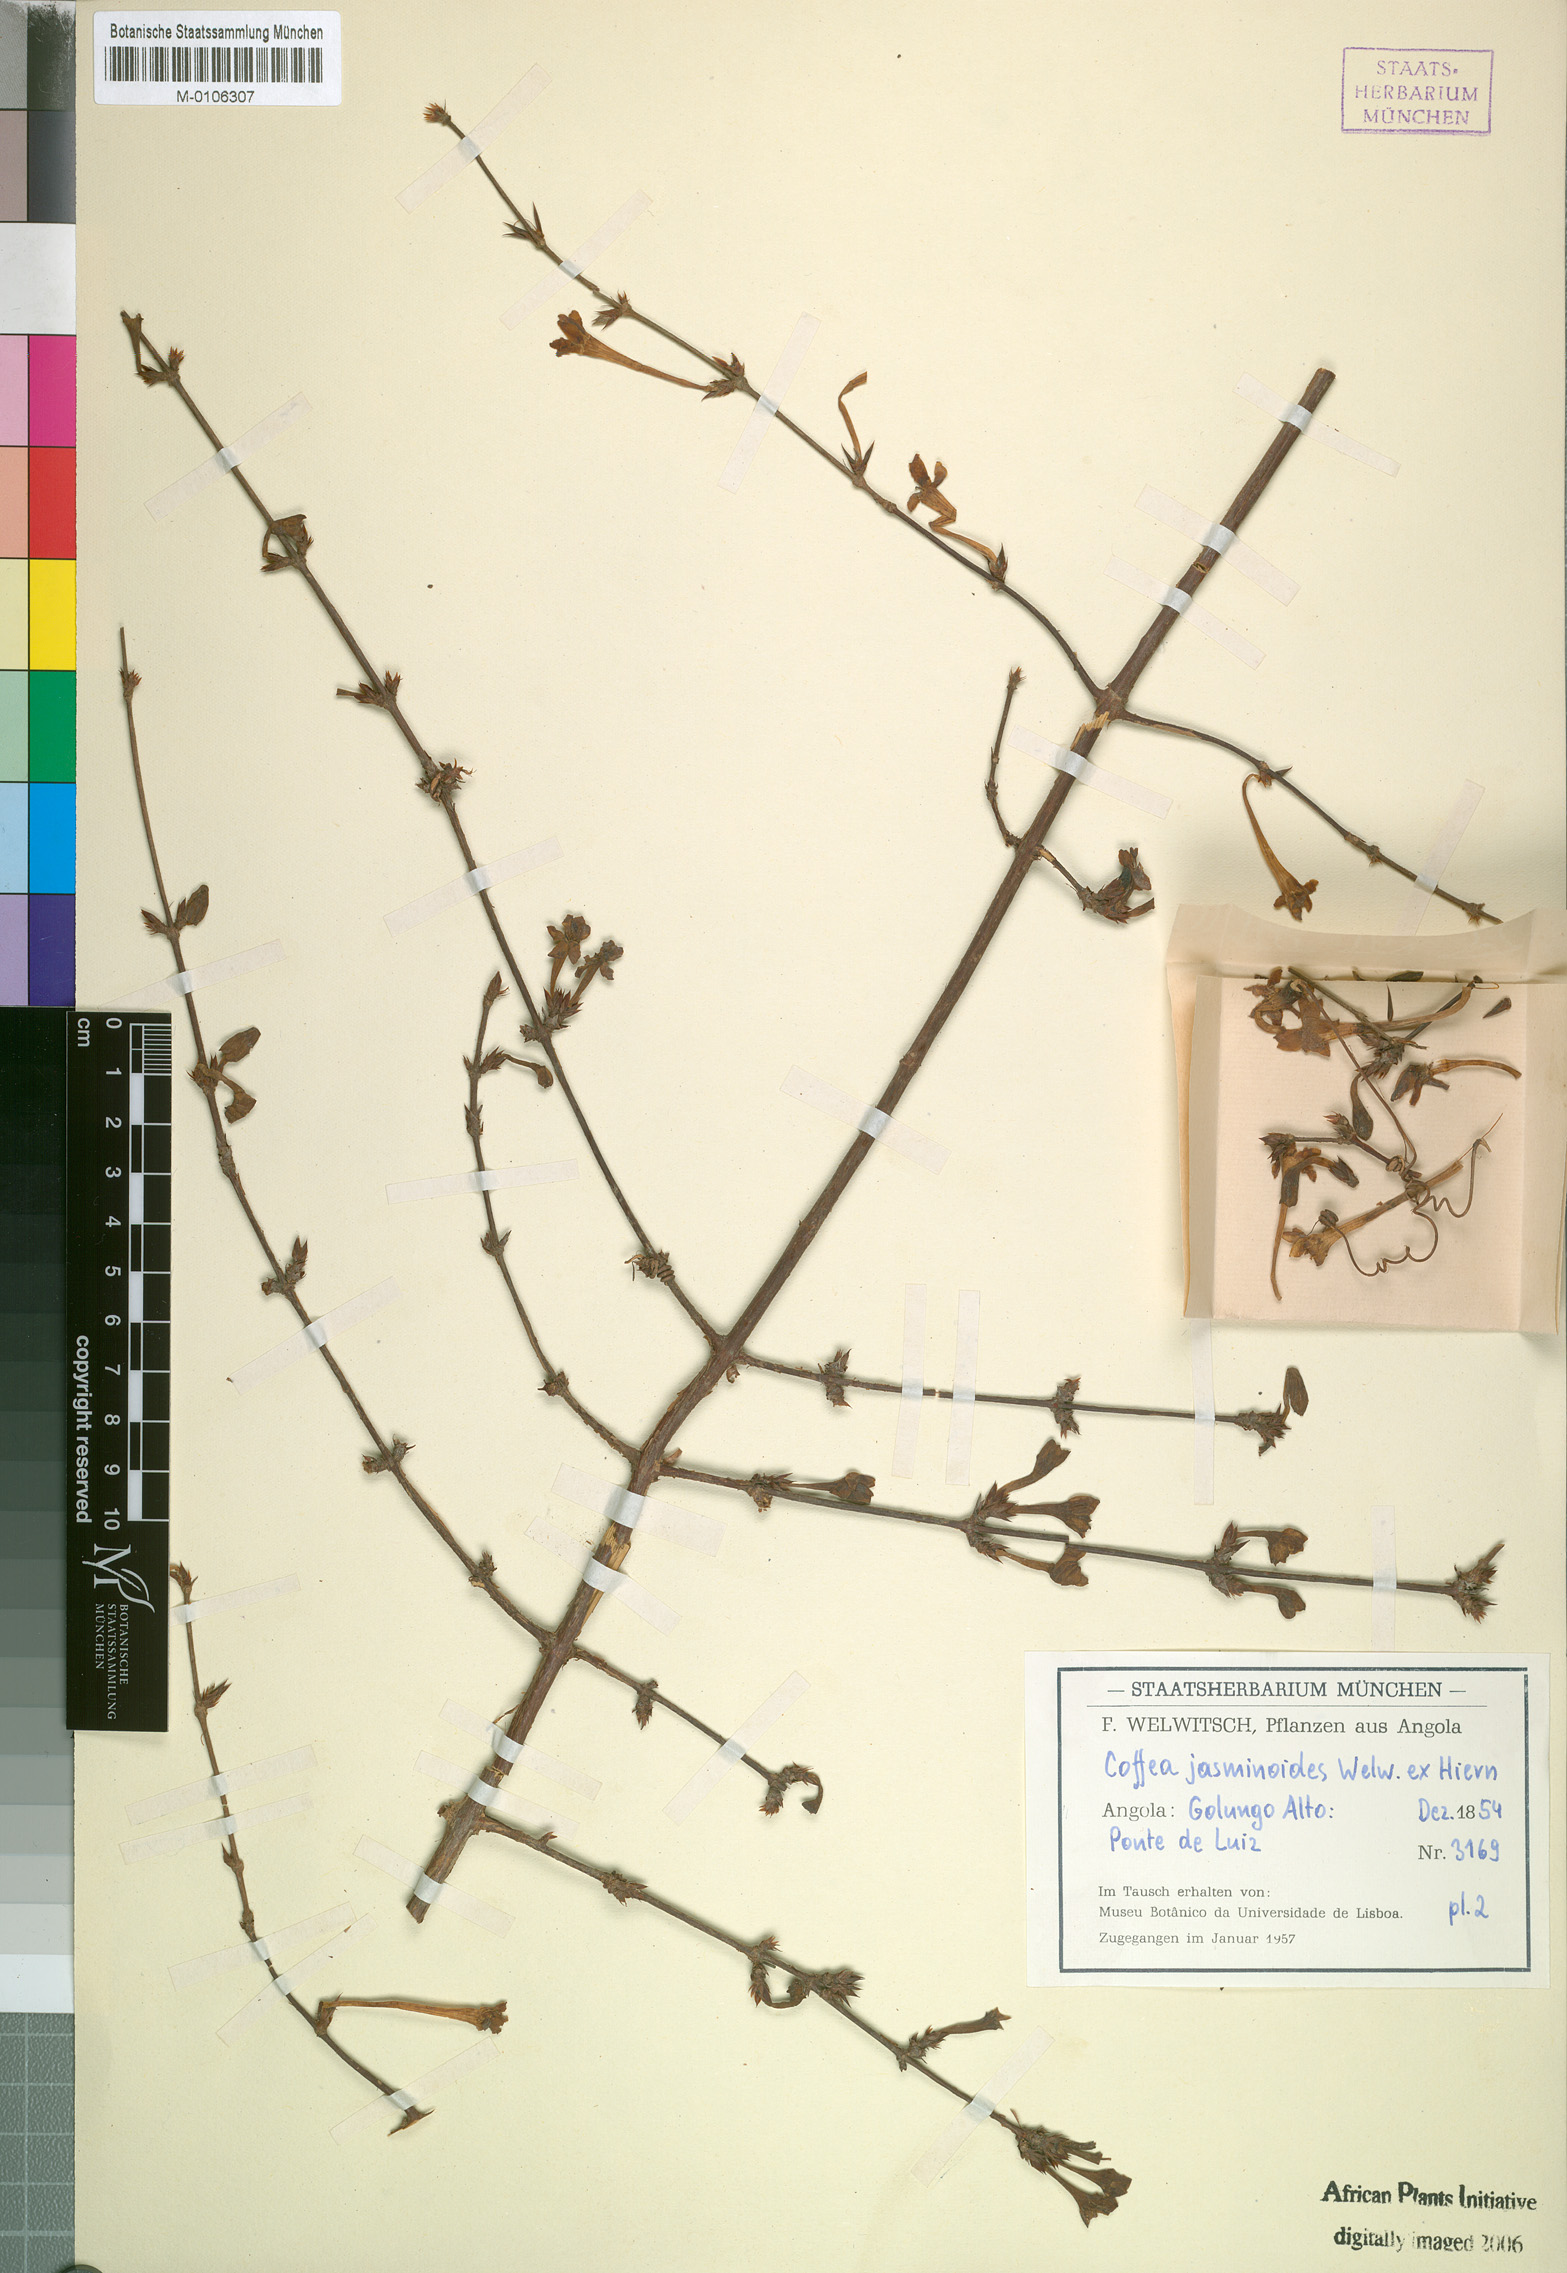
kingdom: Plantae
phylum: Tracheophyta
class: Magnoliopsida
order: Gentianales
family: Rubiaceae
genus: Argocoffeopsis
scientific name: Argocoffeopsis eketensis
